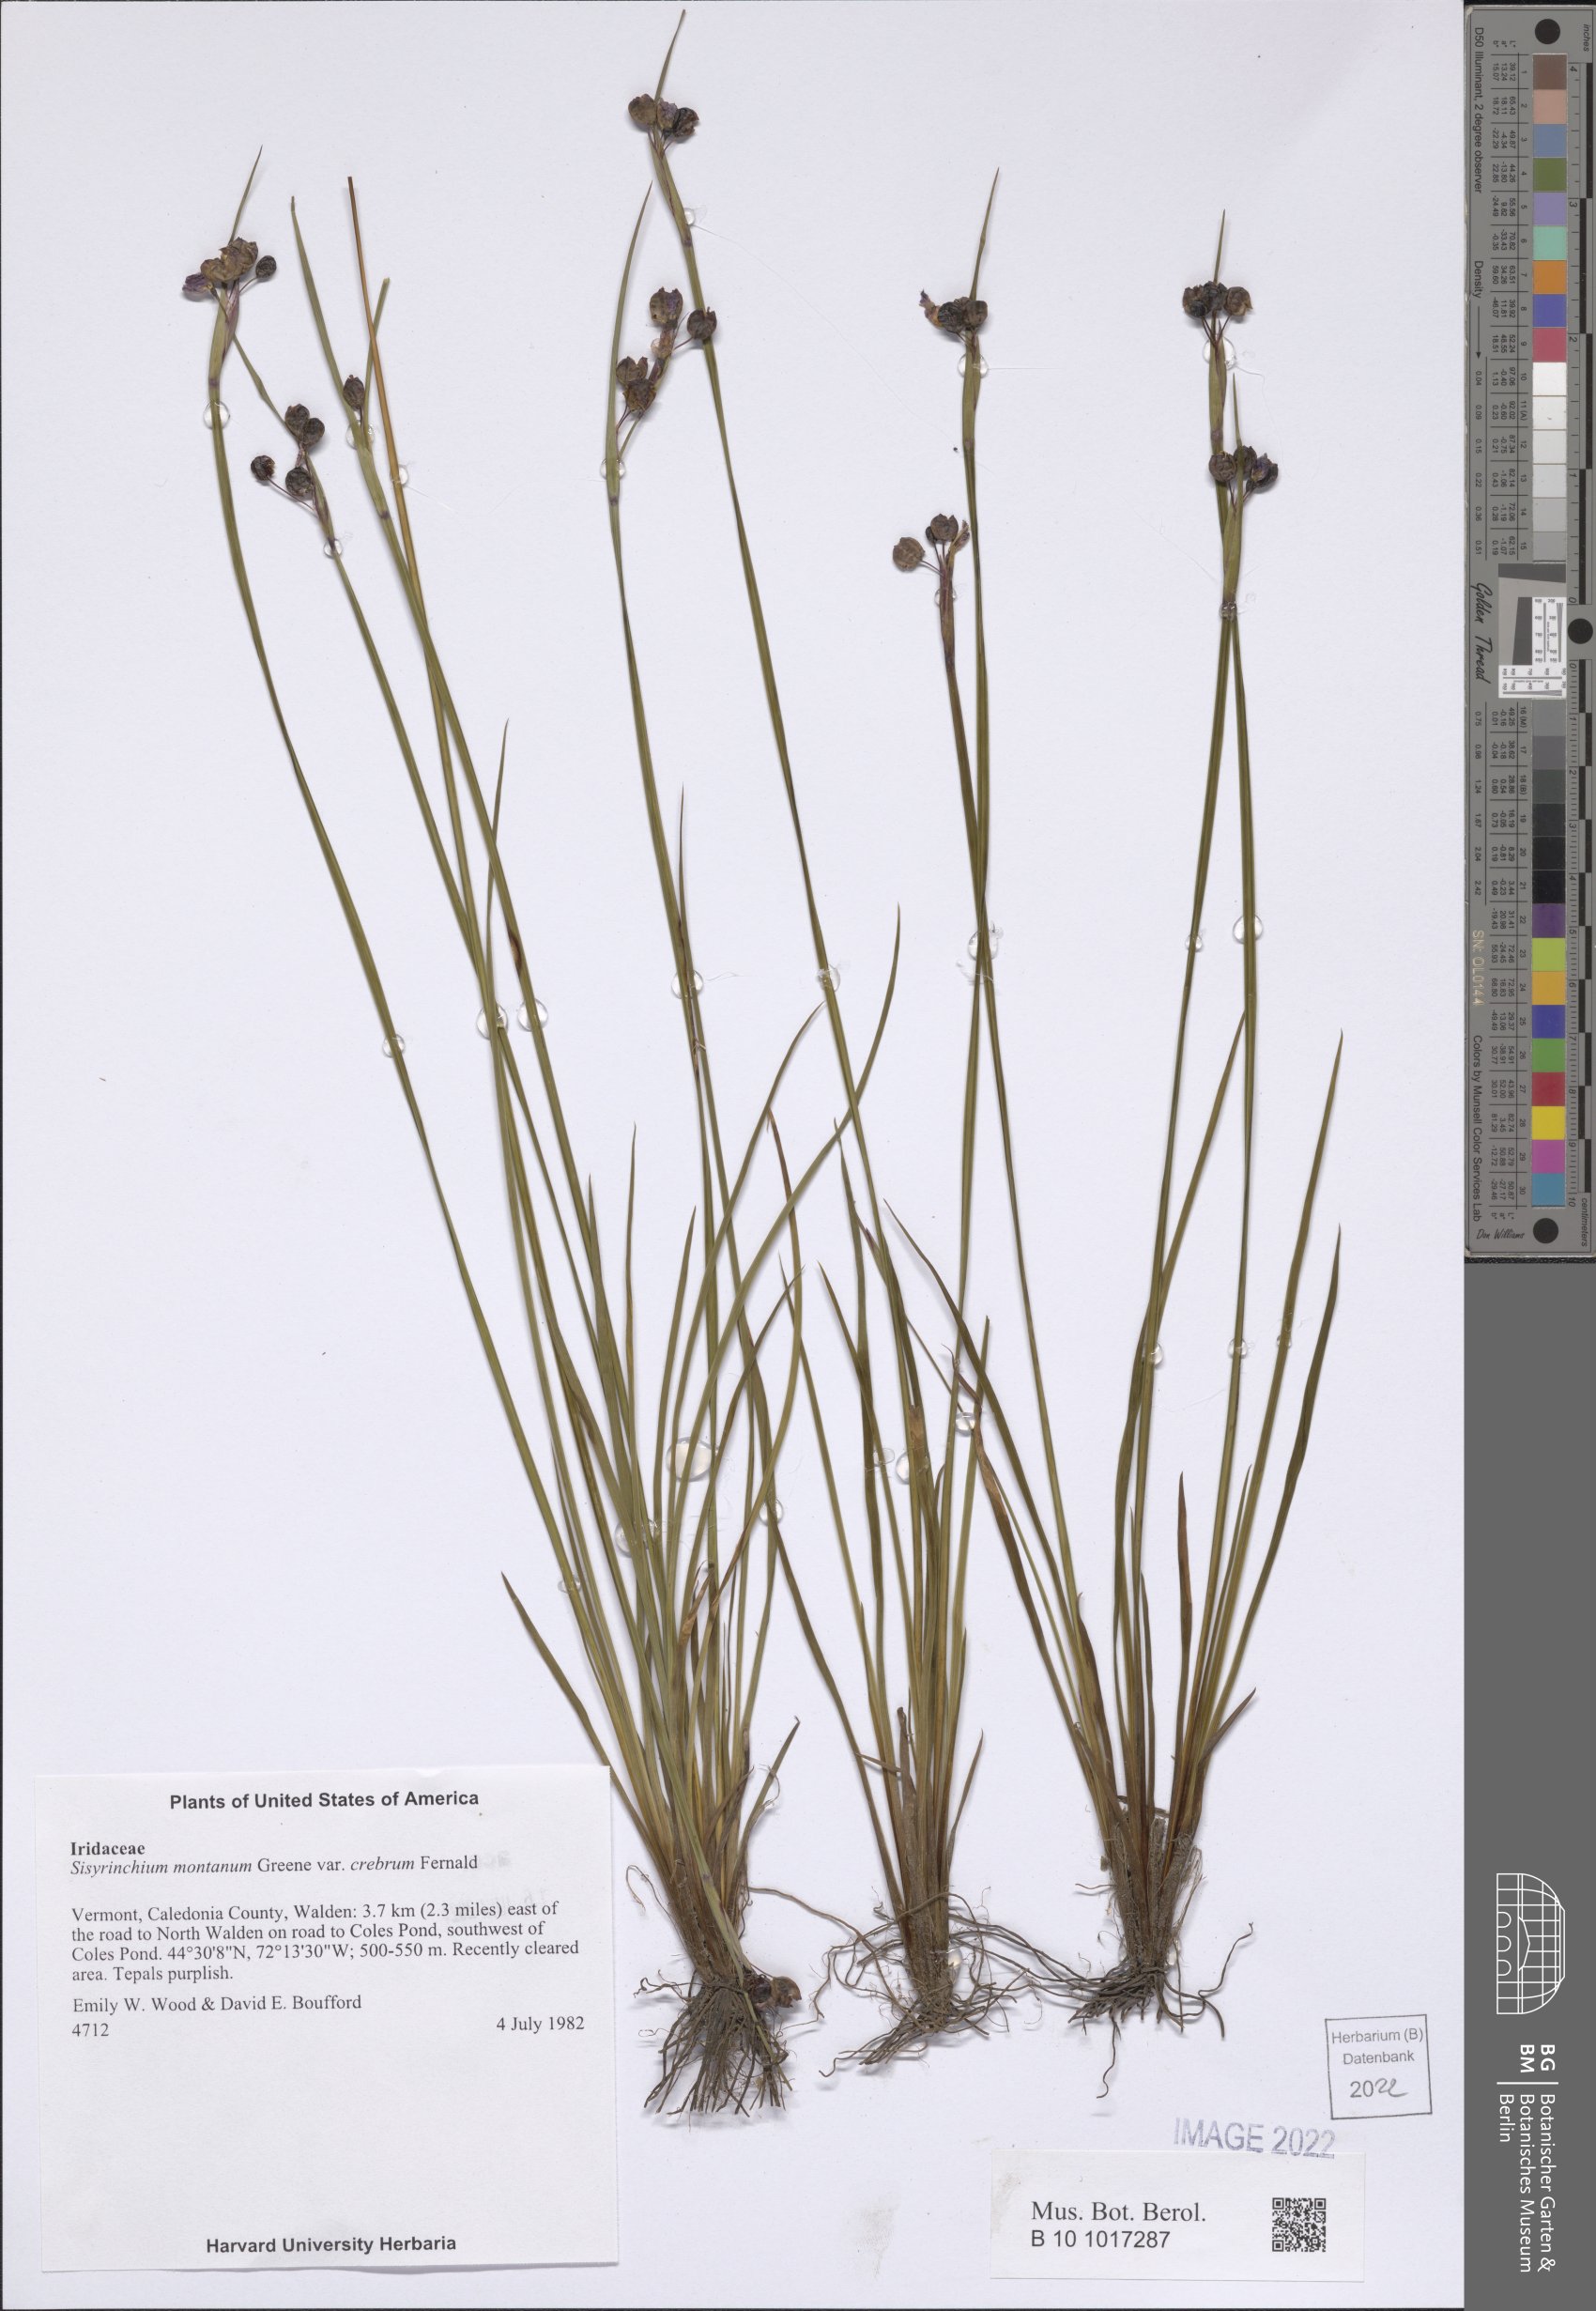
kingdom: Plantae
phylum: Tracheophyta
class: Liliopsida
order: Asparagales
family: Iridaceae
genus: Sisyrinchium
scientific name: Sisyrinchium montanum
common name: American blue-eyed-grass
